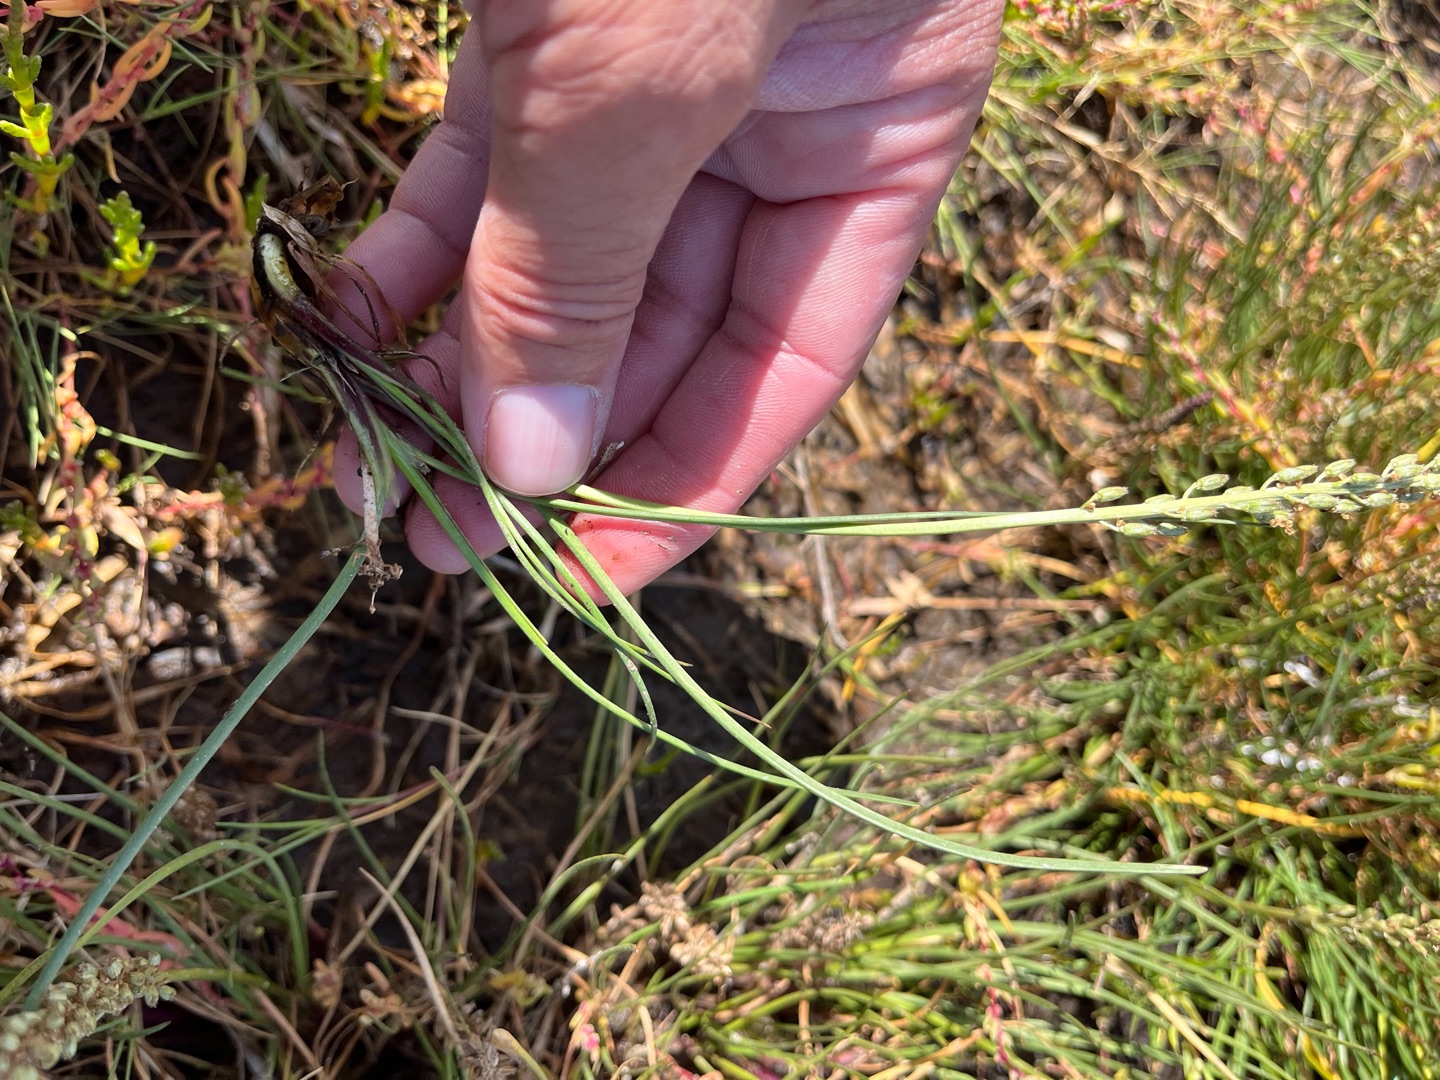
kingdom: Plantae
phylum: Tracheophyta
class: Liliopsida
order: Alismatales
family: Juncaginaceae
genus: Triglochin
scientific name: Triglochin maritima
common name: Strand-trehage
